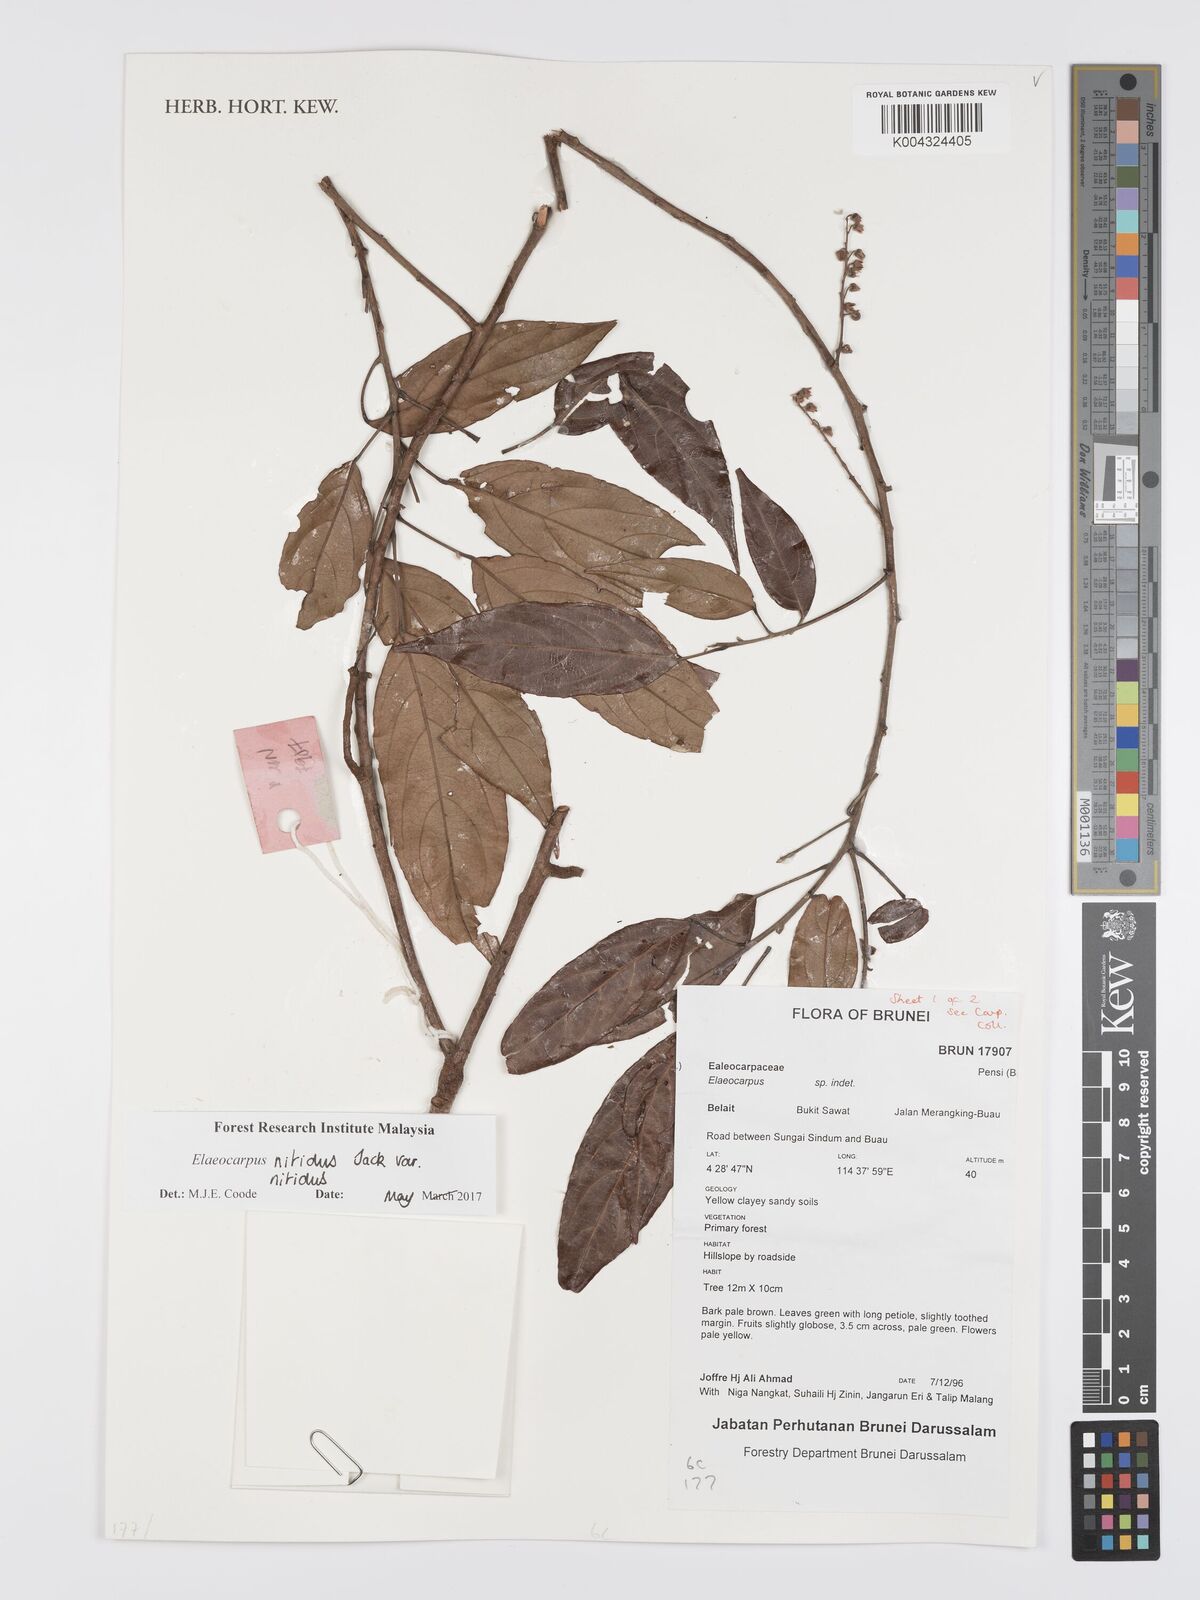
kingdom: Plantae
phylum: Tracheophyta
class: Magnoliopsida
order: Oxalidales
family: Elaeocarpaceae
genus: Elaeocarpus
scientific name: Elaeocarpus nitidus
